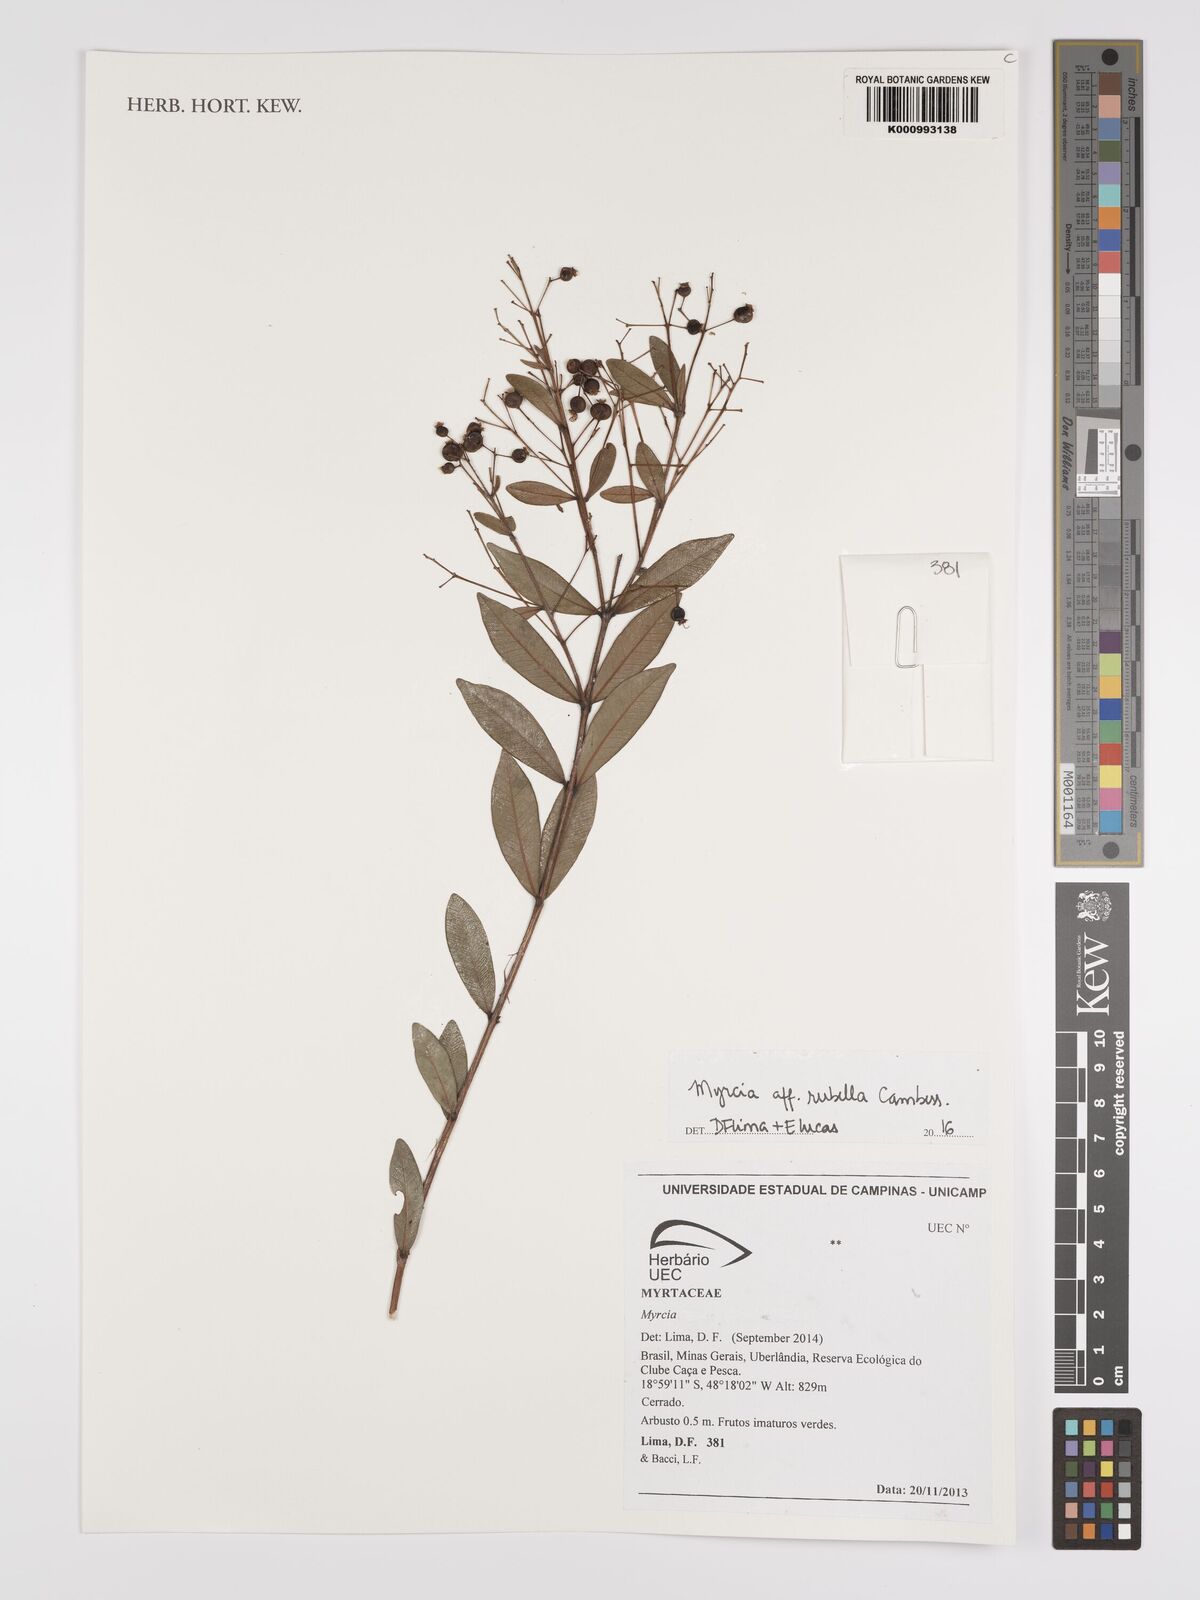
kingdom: Plantae
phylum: Tracheophyta
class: Magnoliopsida
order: Myrtales
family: Myrtaceae
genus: Myrcia
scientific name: Myrcia guianensis
